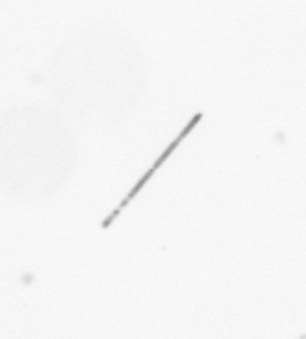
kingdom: Chromista
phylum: Ochrophyta
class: Bacillariophyceae
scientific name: Bacillariophyceae
